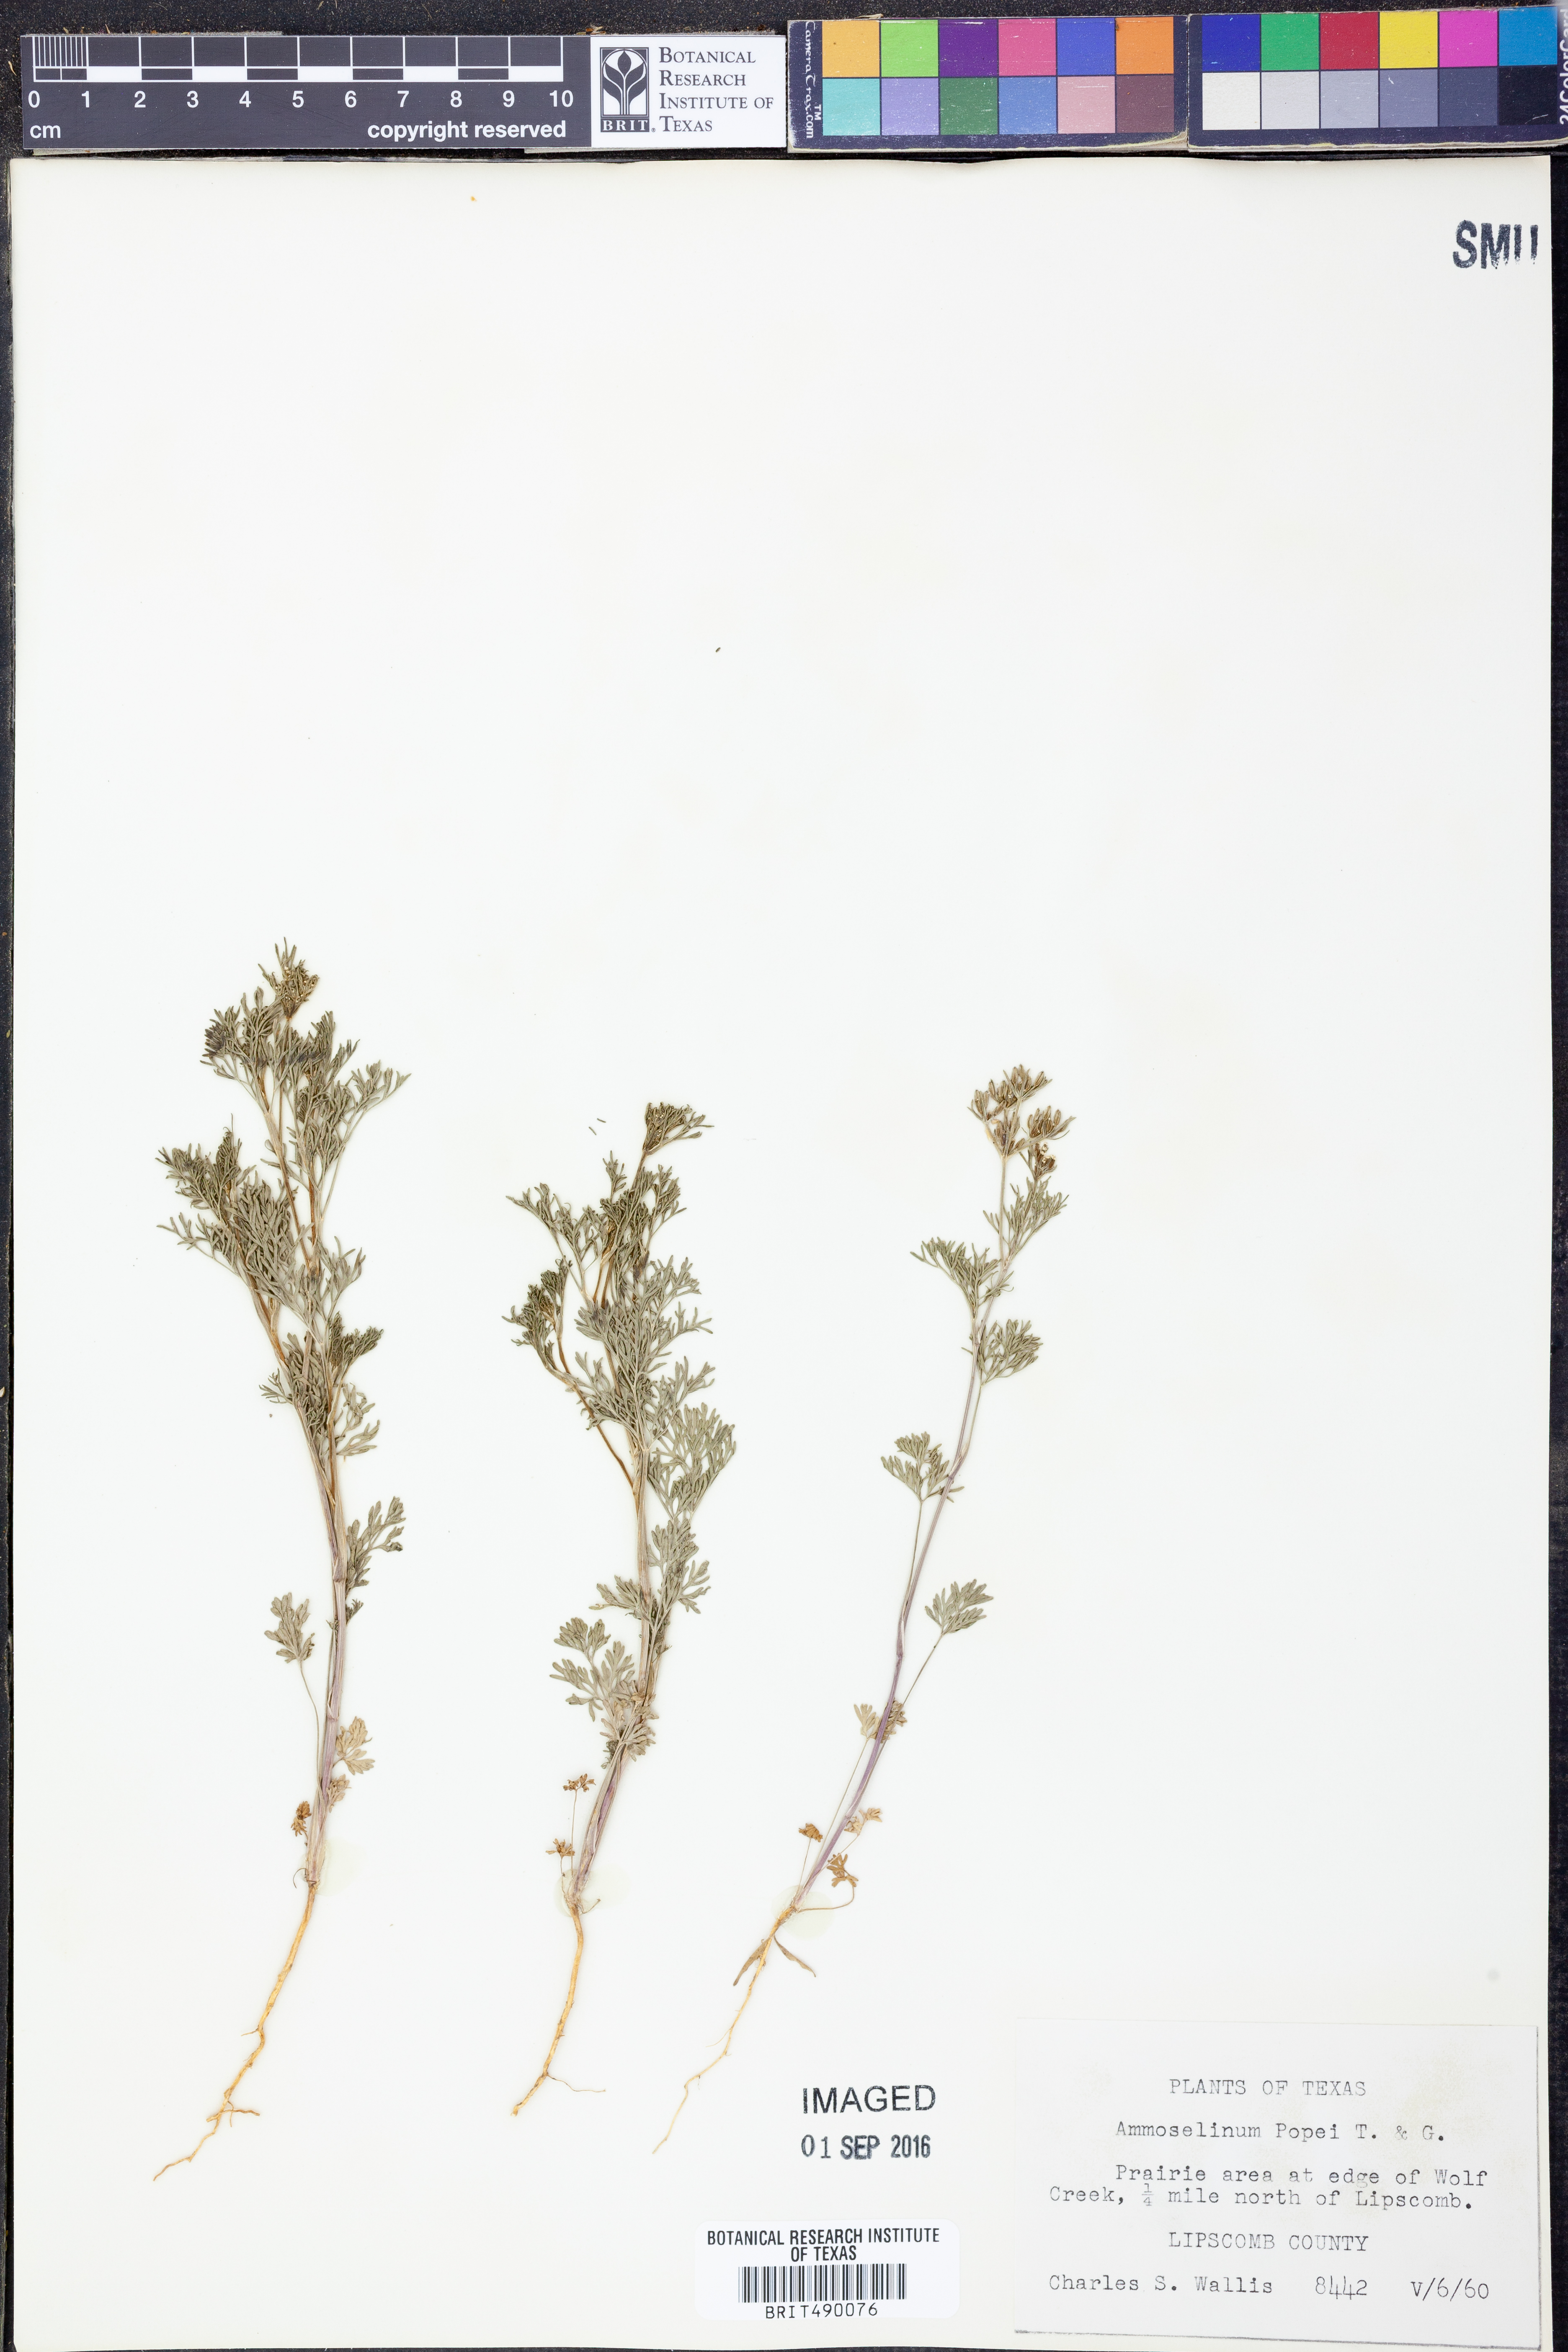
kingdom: Plantae
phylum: Tracheophyta
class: Magnoliopsida
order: Apiales
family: Apiaceae
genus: Ammoselinum
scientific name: Ammoselinum popei
